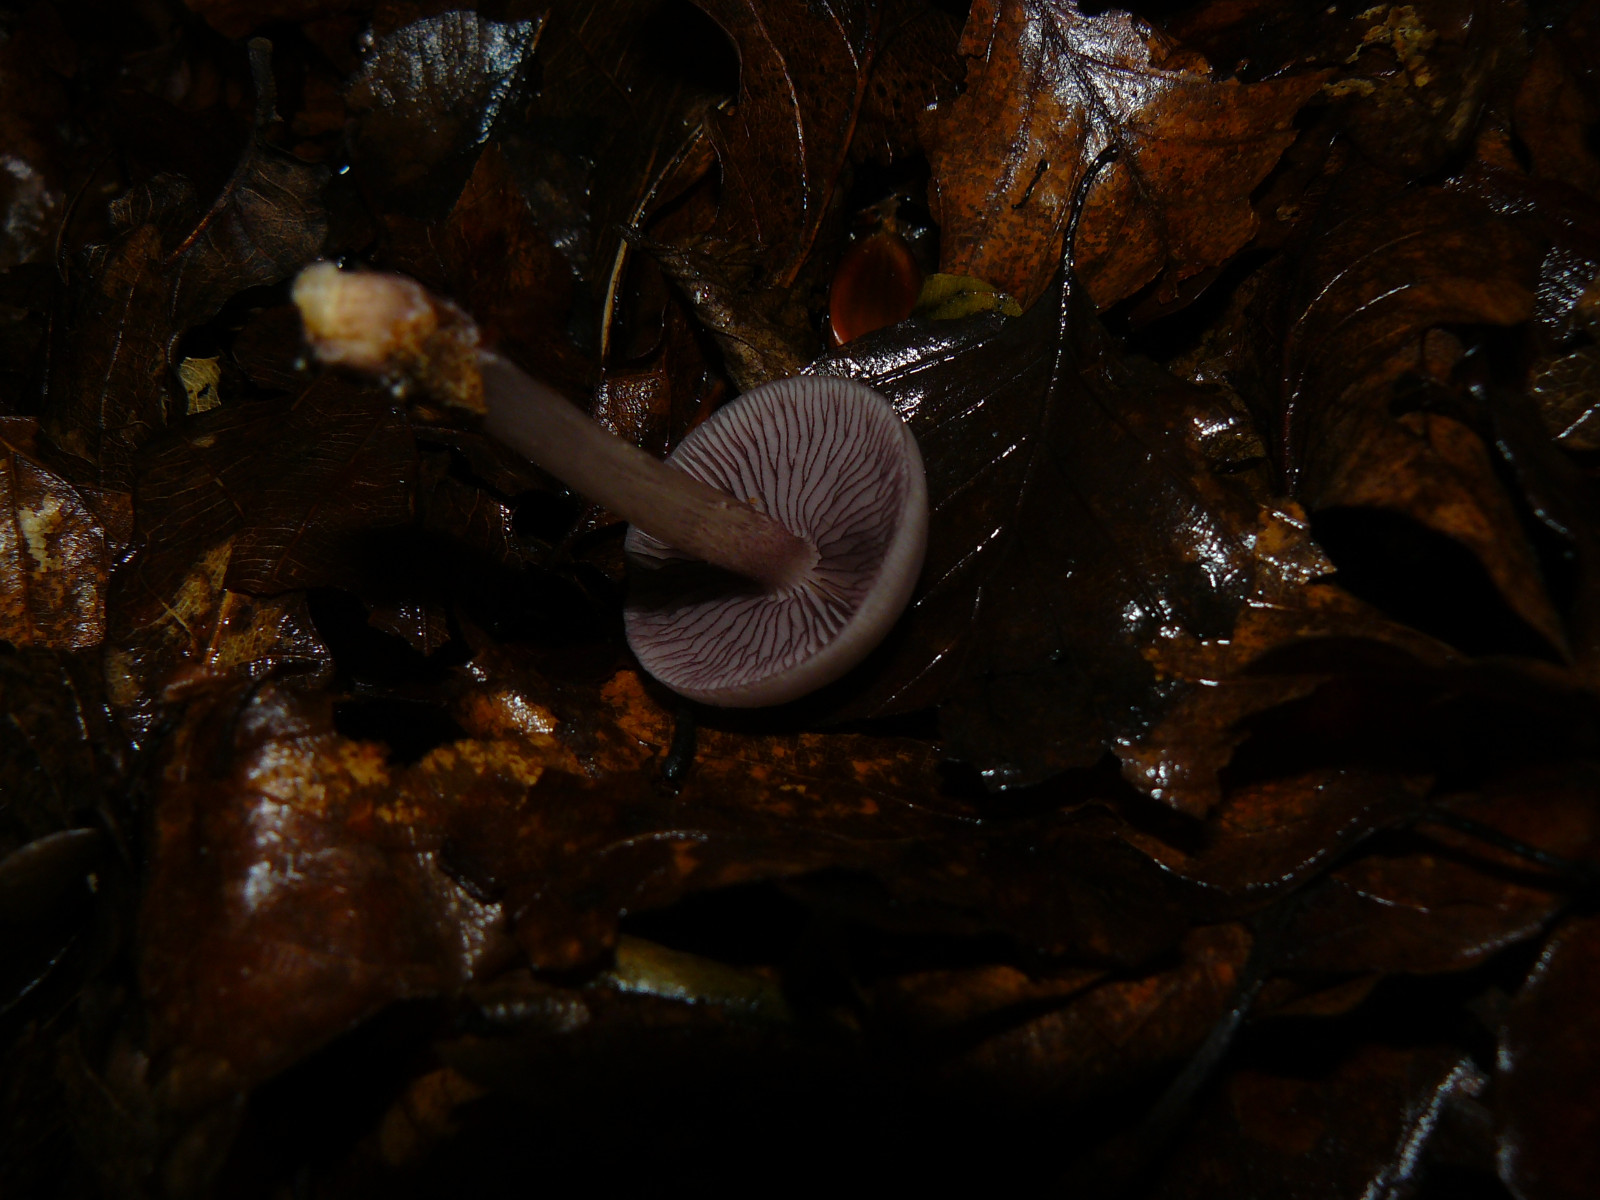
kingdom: Fungi
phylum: Basidiomycota
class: Agaricomycetes
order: Agaricales
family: Mycenaceae
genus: Mycena
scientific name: Mycena pelianthina
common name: mørkbladet huesvamp
